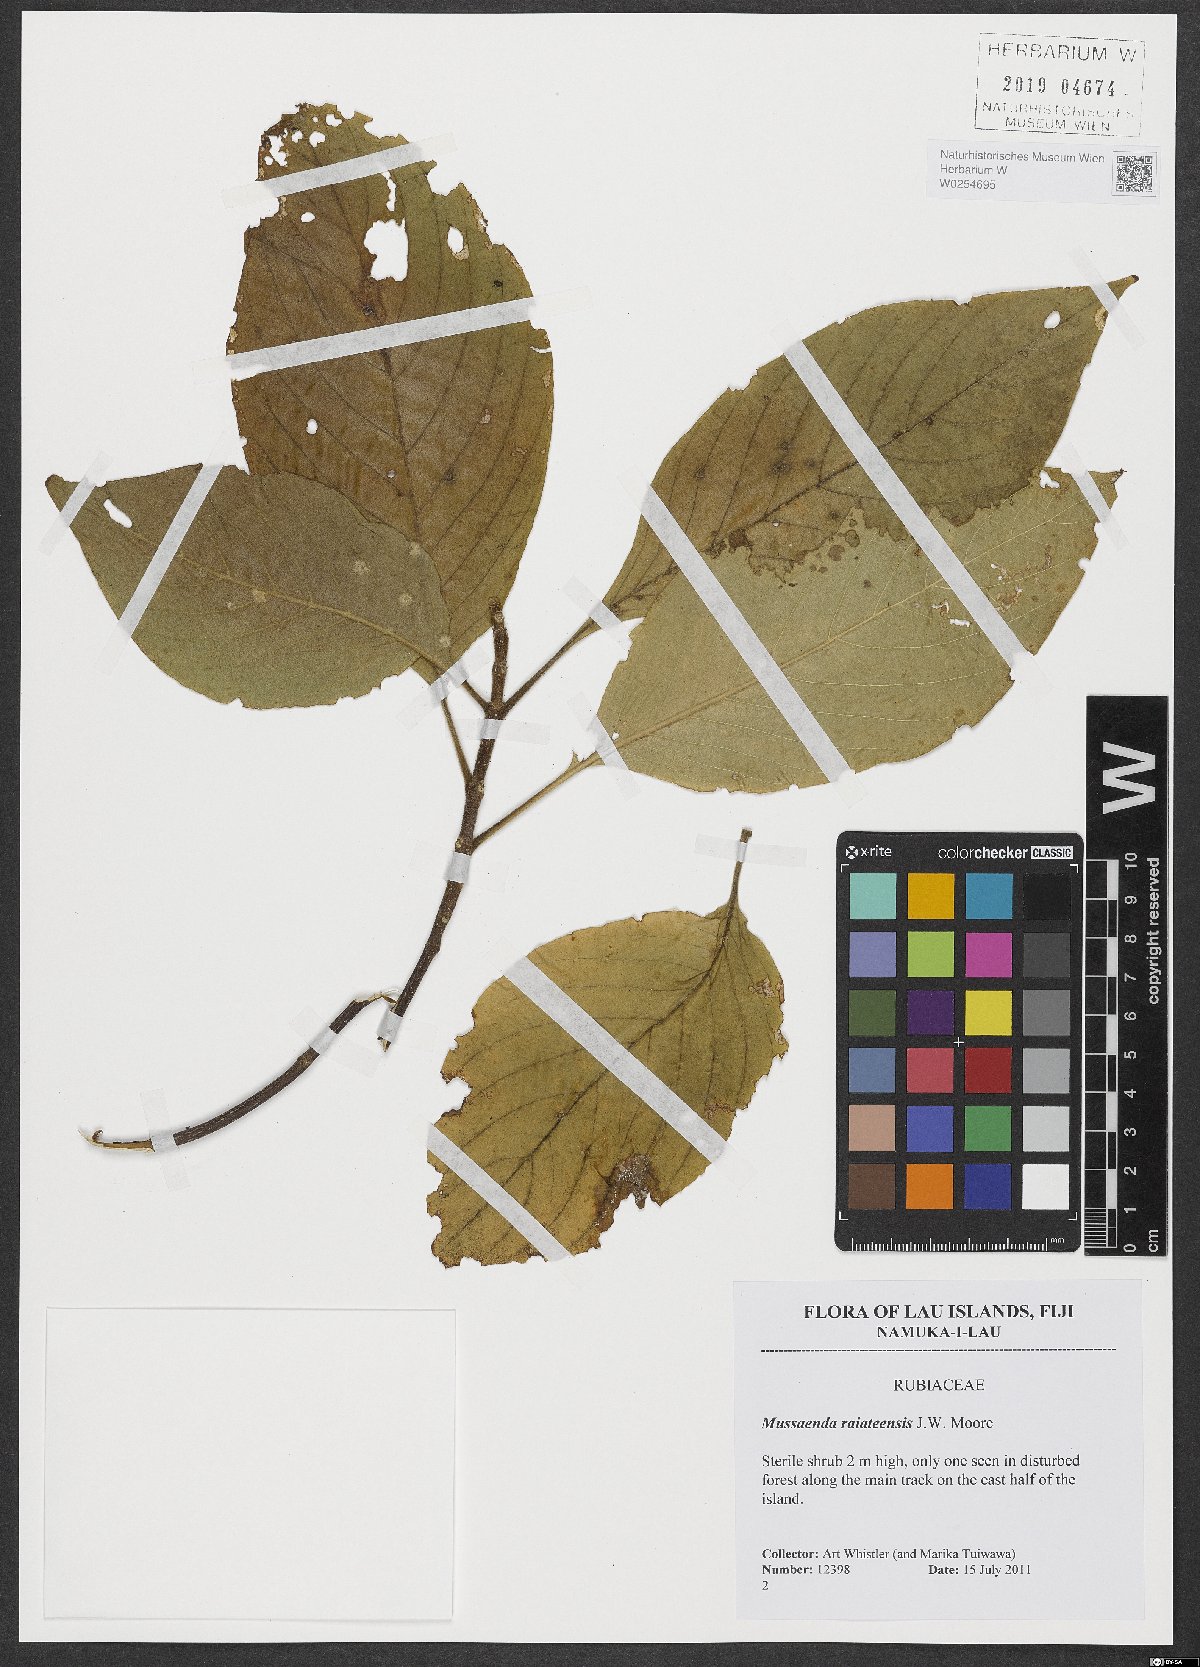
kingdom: Plantae
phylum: Tracheophyta
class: Magnoliopsida
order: Gentianales
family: Rubiaceae
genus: Mussaenda
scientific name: Mussaenda raiateensis
